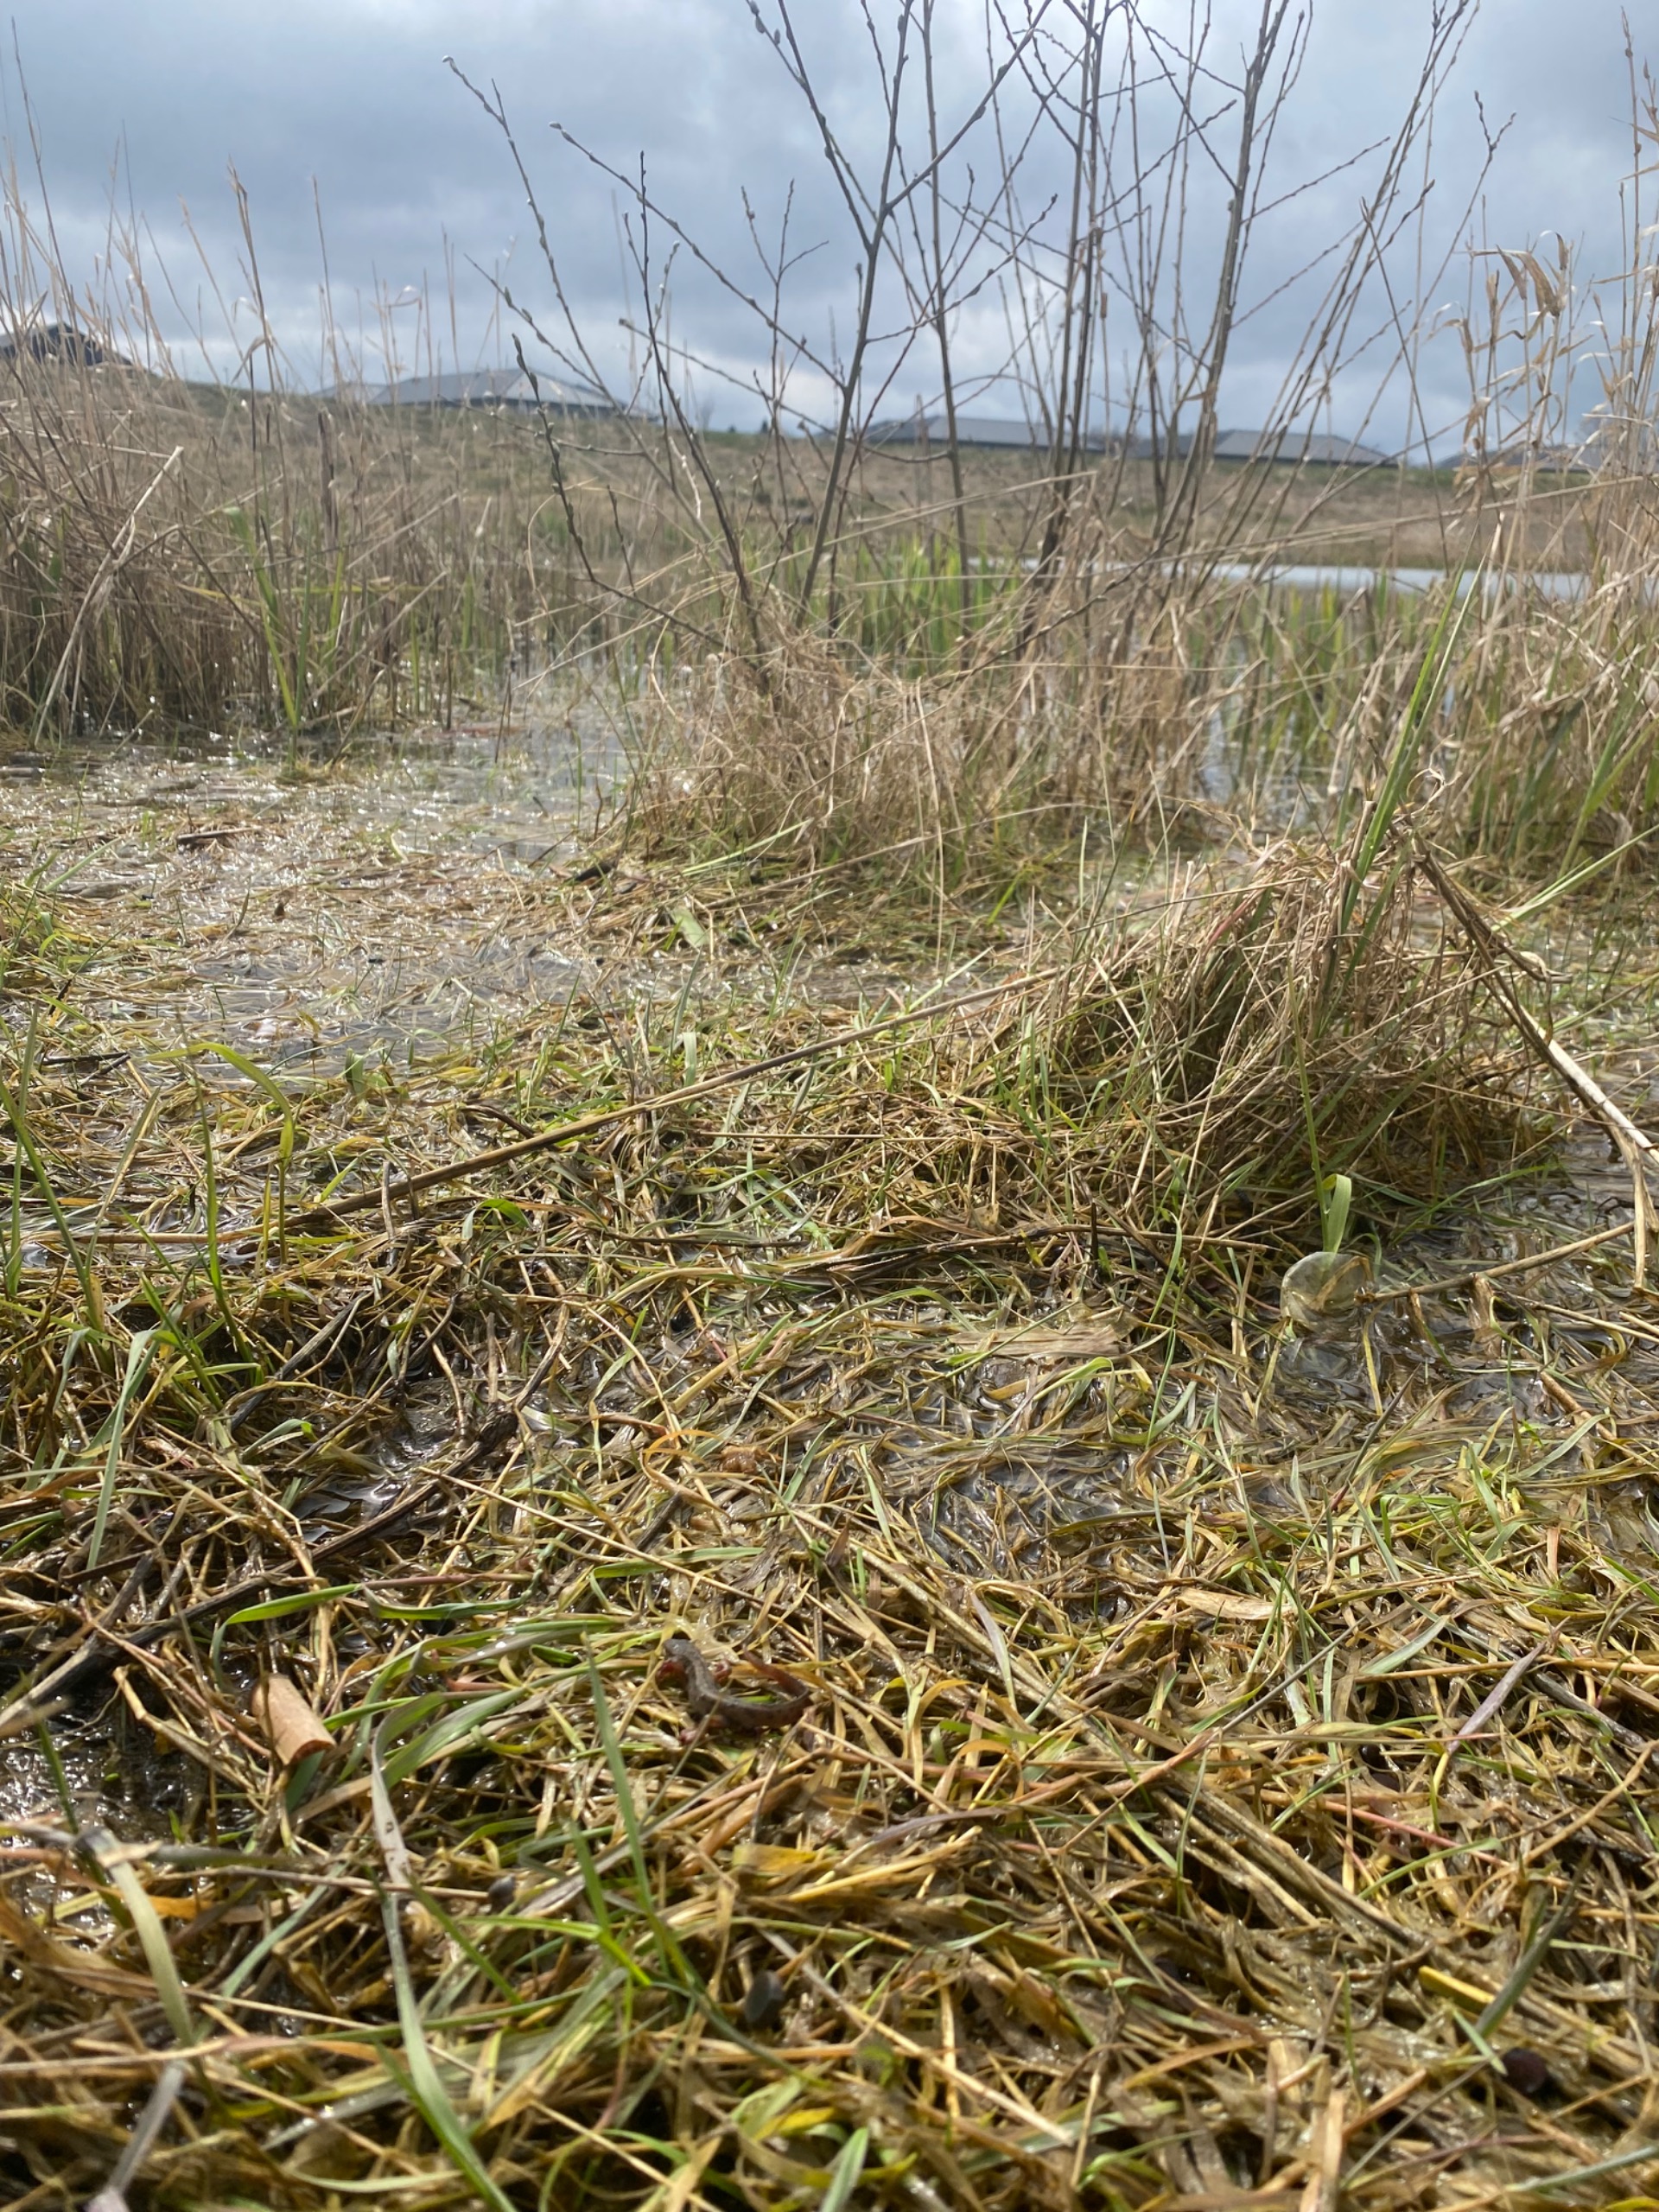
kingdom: Animalia
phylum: Chordata
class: Amphibia
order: Caudata
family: Salamandridae
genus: Lissotriton
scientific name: Lissotriton vulgaris
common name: Lille vandsalamander
